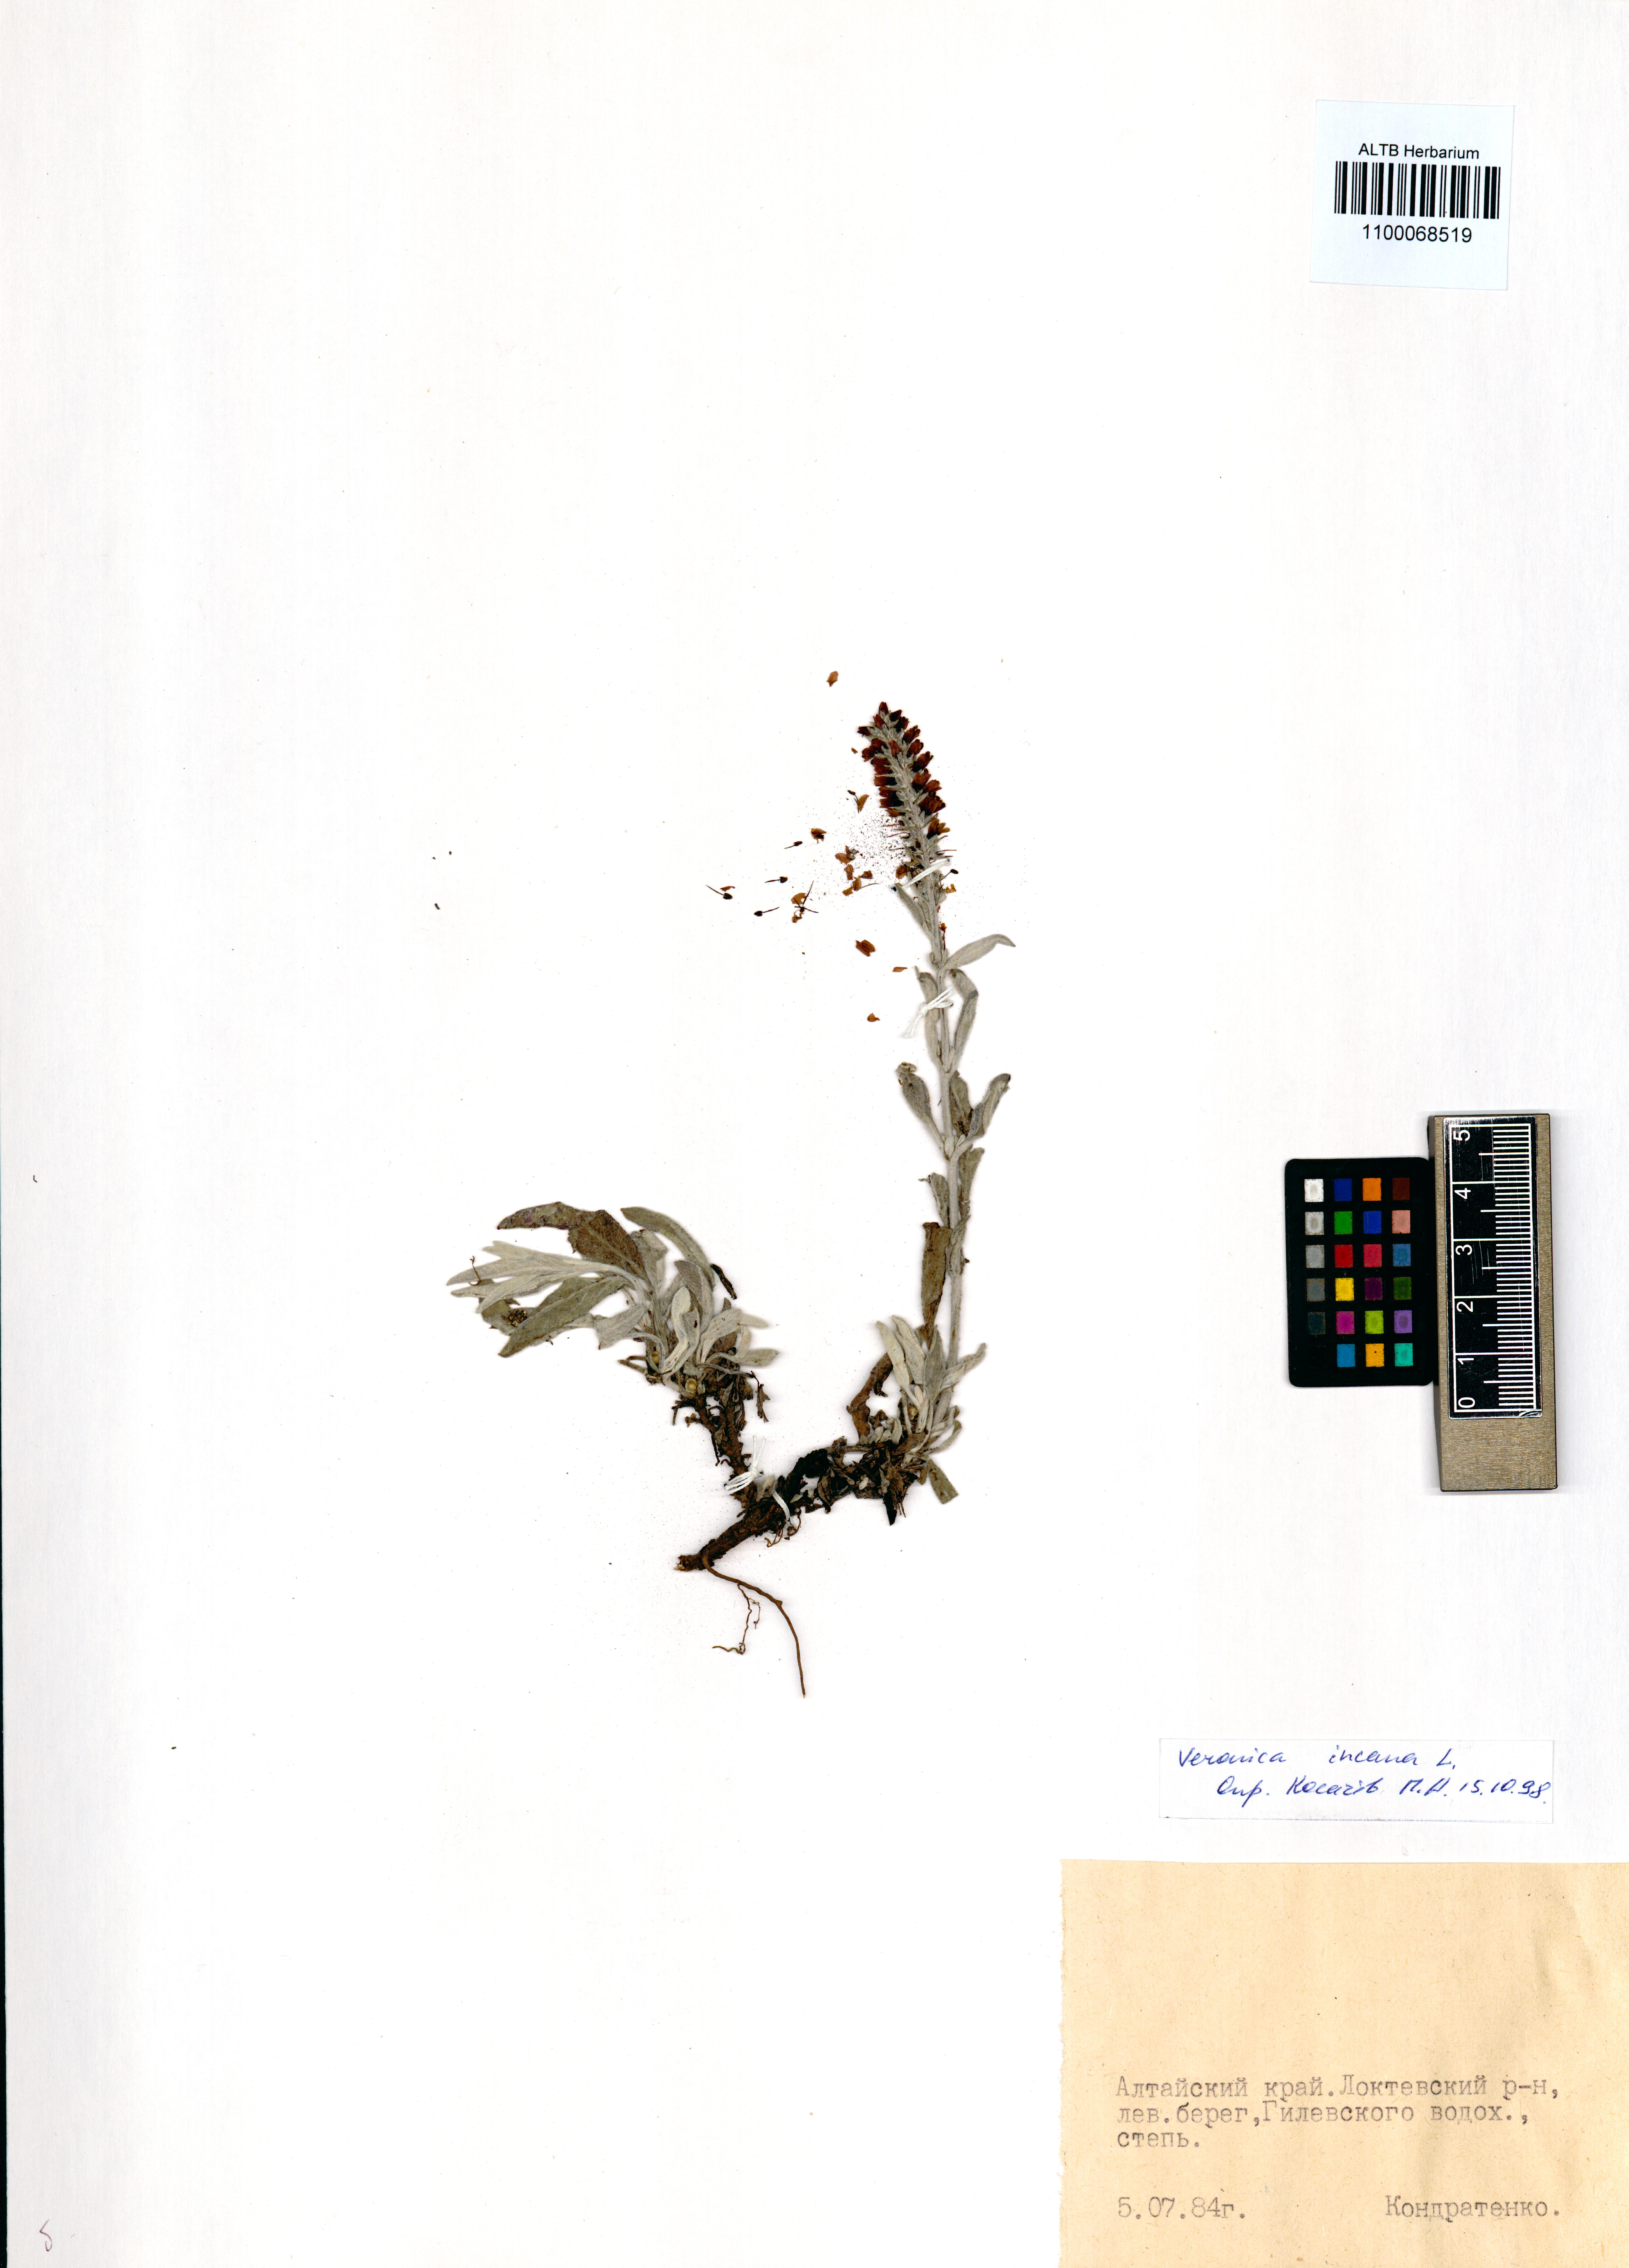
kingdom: Plantae
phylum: Tracheophyta
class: Magnoliopsida
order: Lamiales
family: Plantaginaceae
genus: Veronica
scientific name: Veronica incana
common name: Silver speedwell
